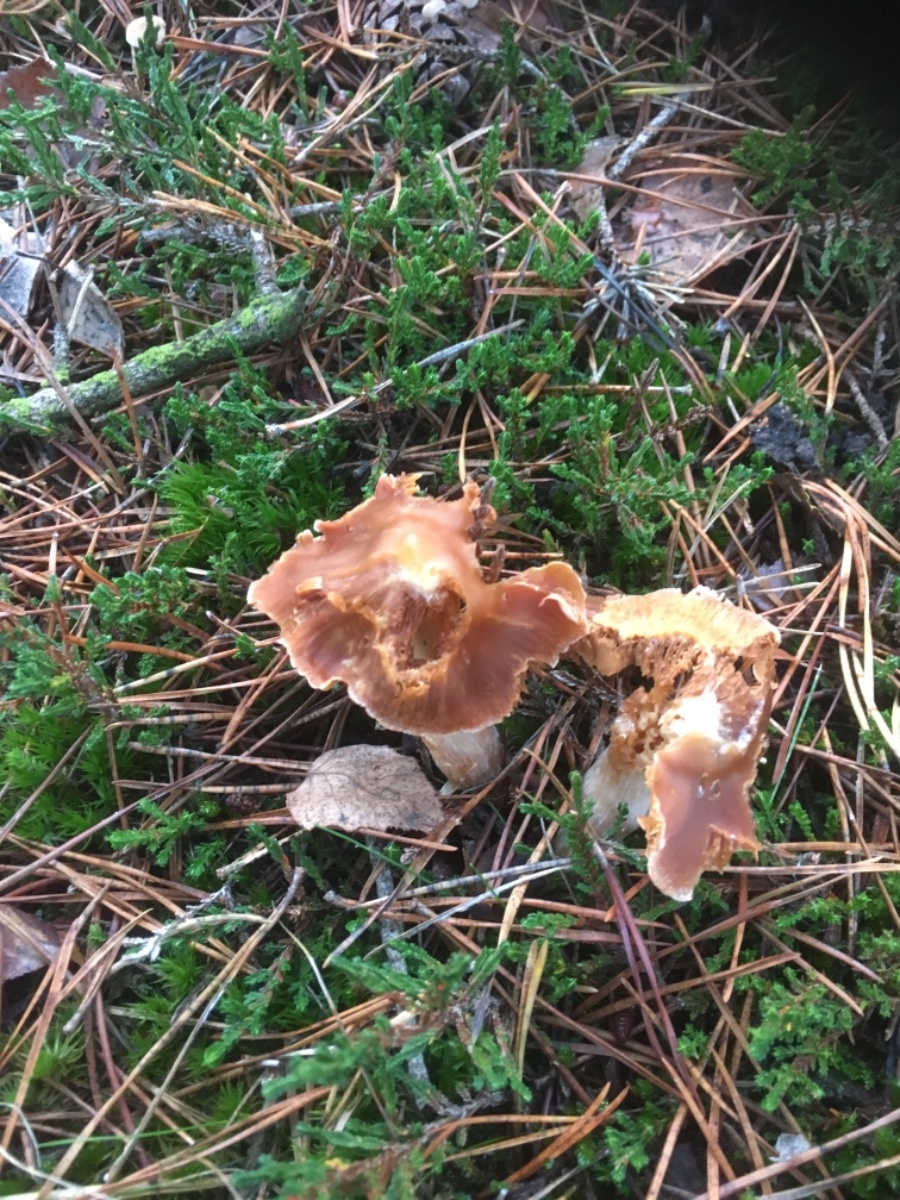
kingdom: Fungi
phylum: Basidiomycota
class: Agaricomycetes
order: Agaricales
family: Cortinariaceae
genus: Cortinarius
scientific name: Cortinarius
